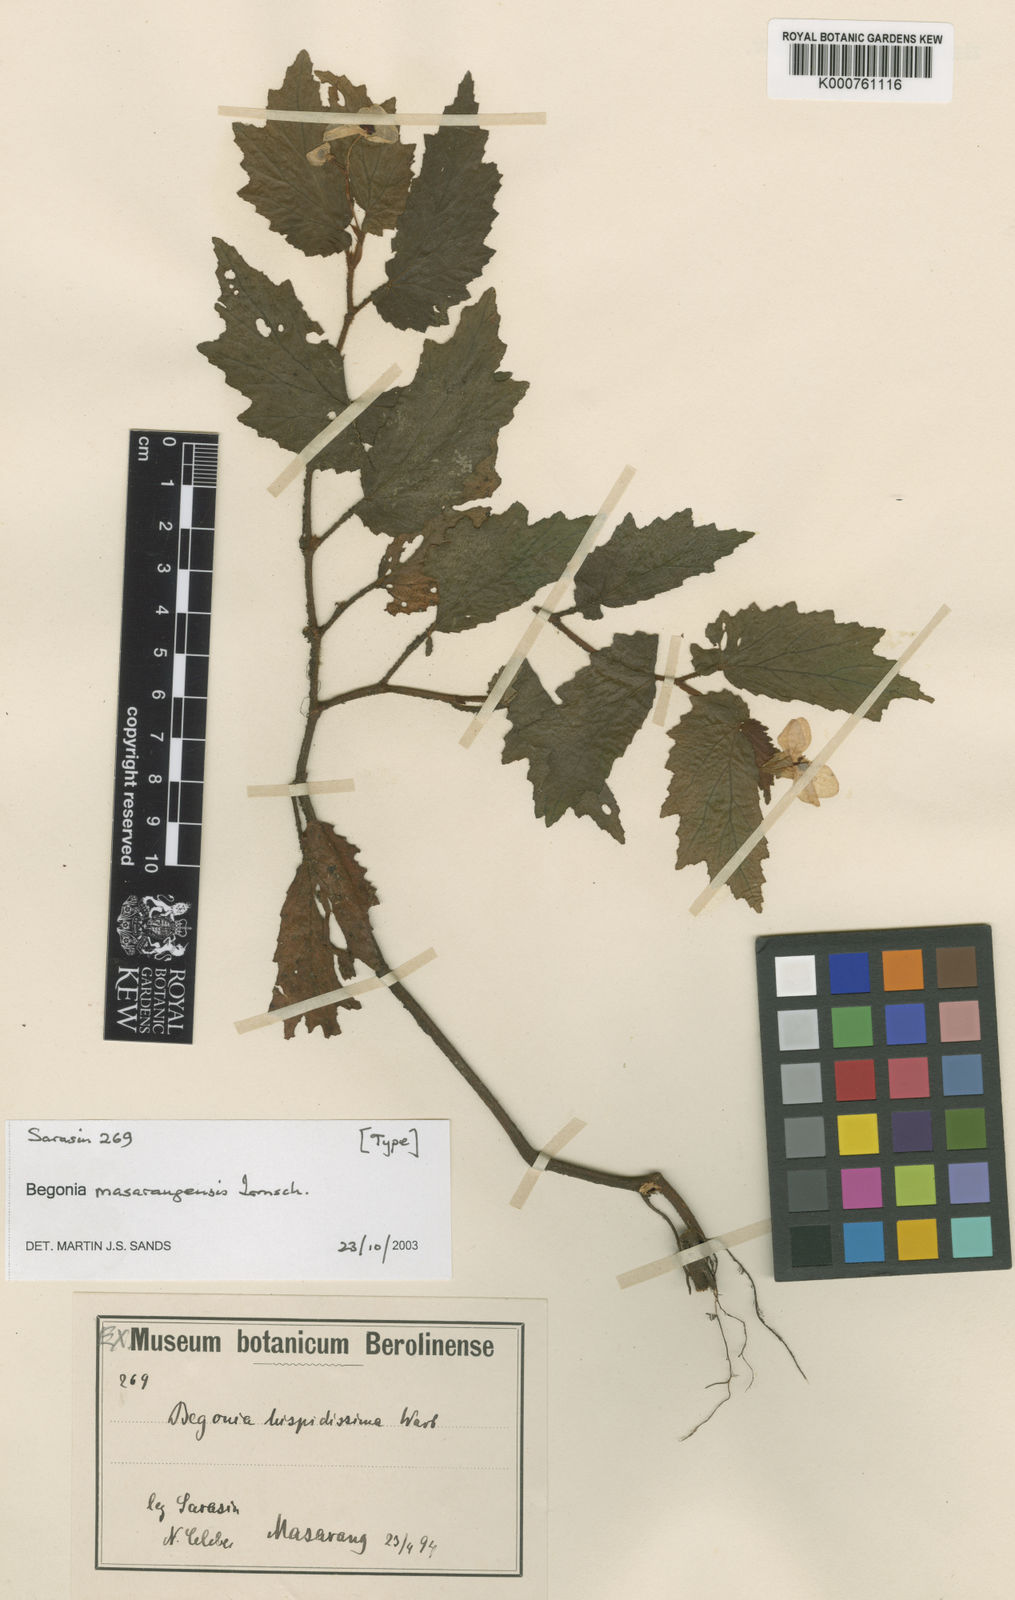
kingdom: Plantae
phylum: Tracheophyta
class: Magnoliopsida
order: Cucurbitales
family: Begoniaceae
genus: Begonia
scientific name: Begonia masarangensis
